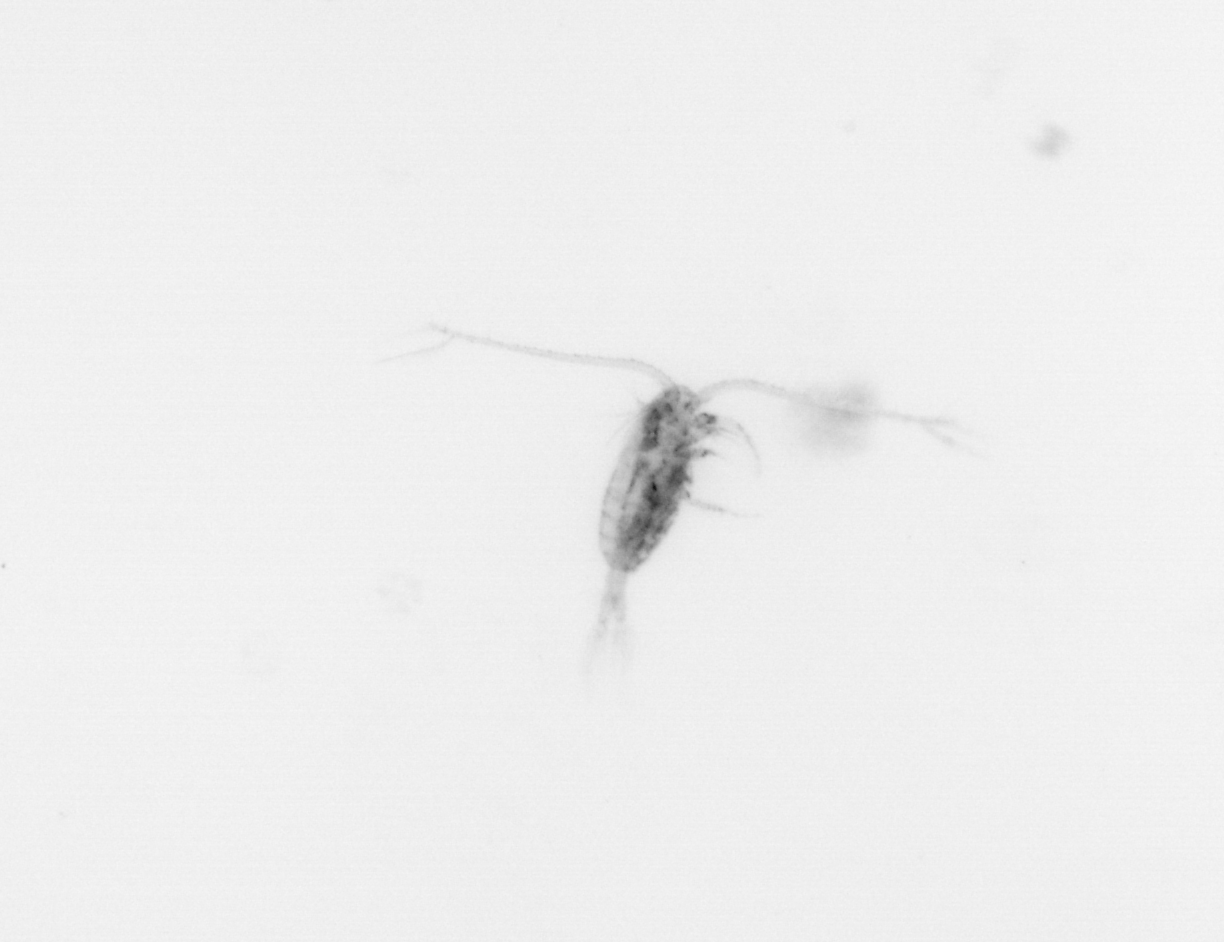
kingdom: Animalia
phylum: Arthropoda
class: Copepoda
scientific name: Copepoda
